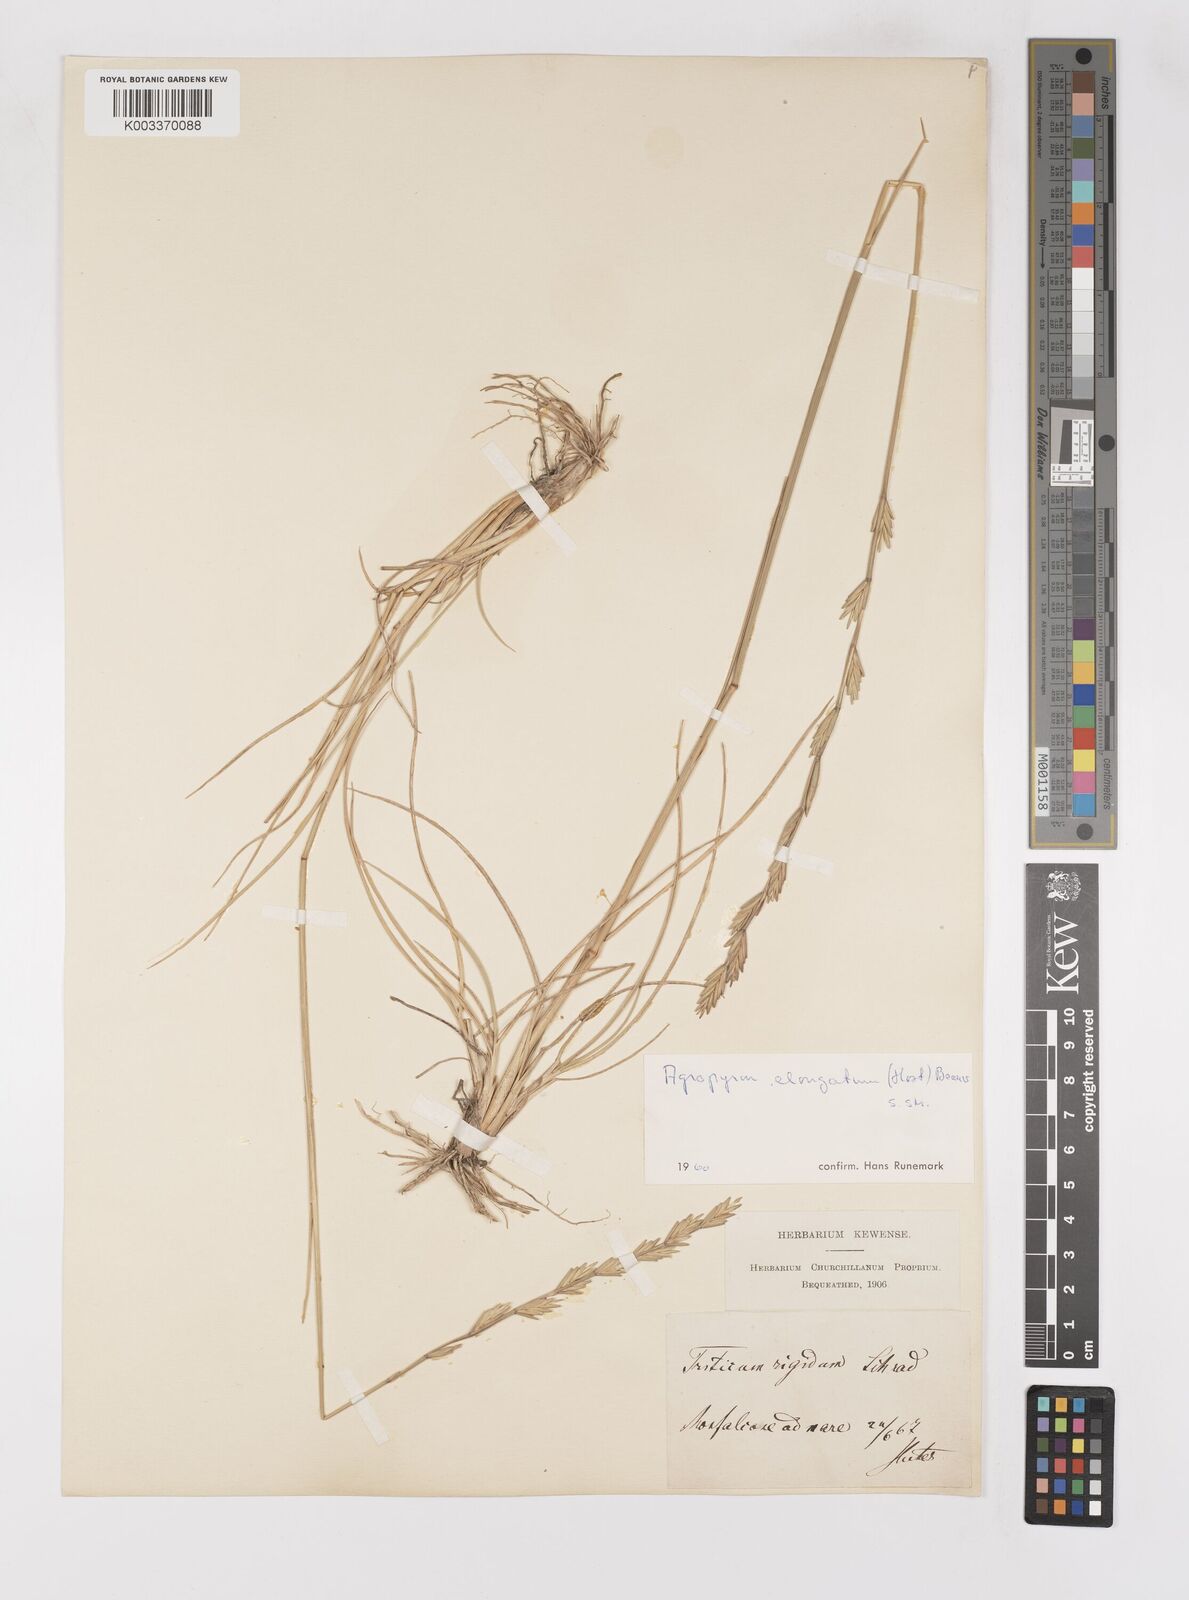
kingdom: Plantae
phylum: Tracheophyta
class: Liliopsida
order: Poales
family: Poaceae
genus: Thinopyrum
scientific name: Thinopyrum elongatum
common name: Tall wheatgrass
